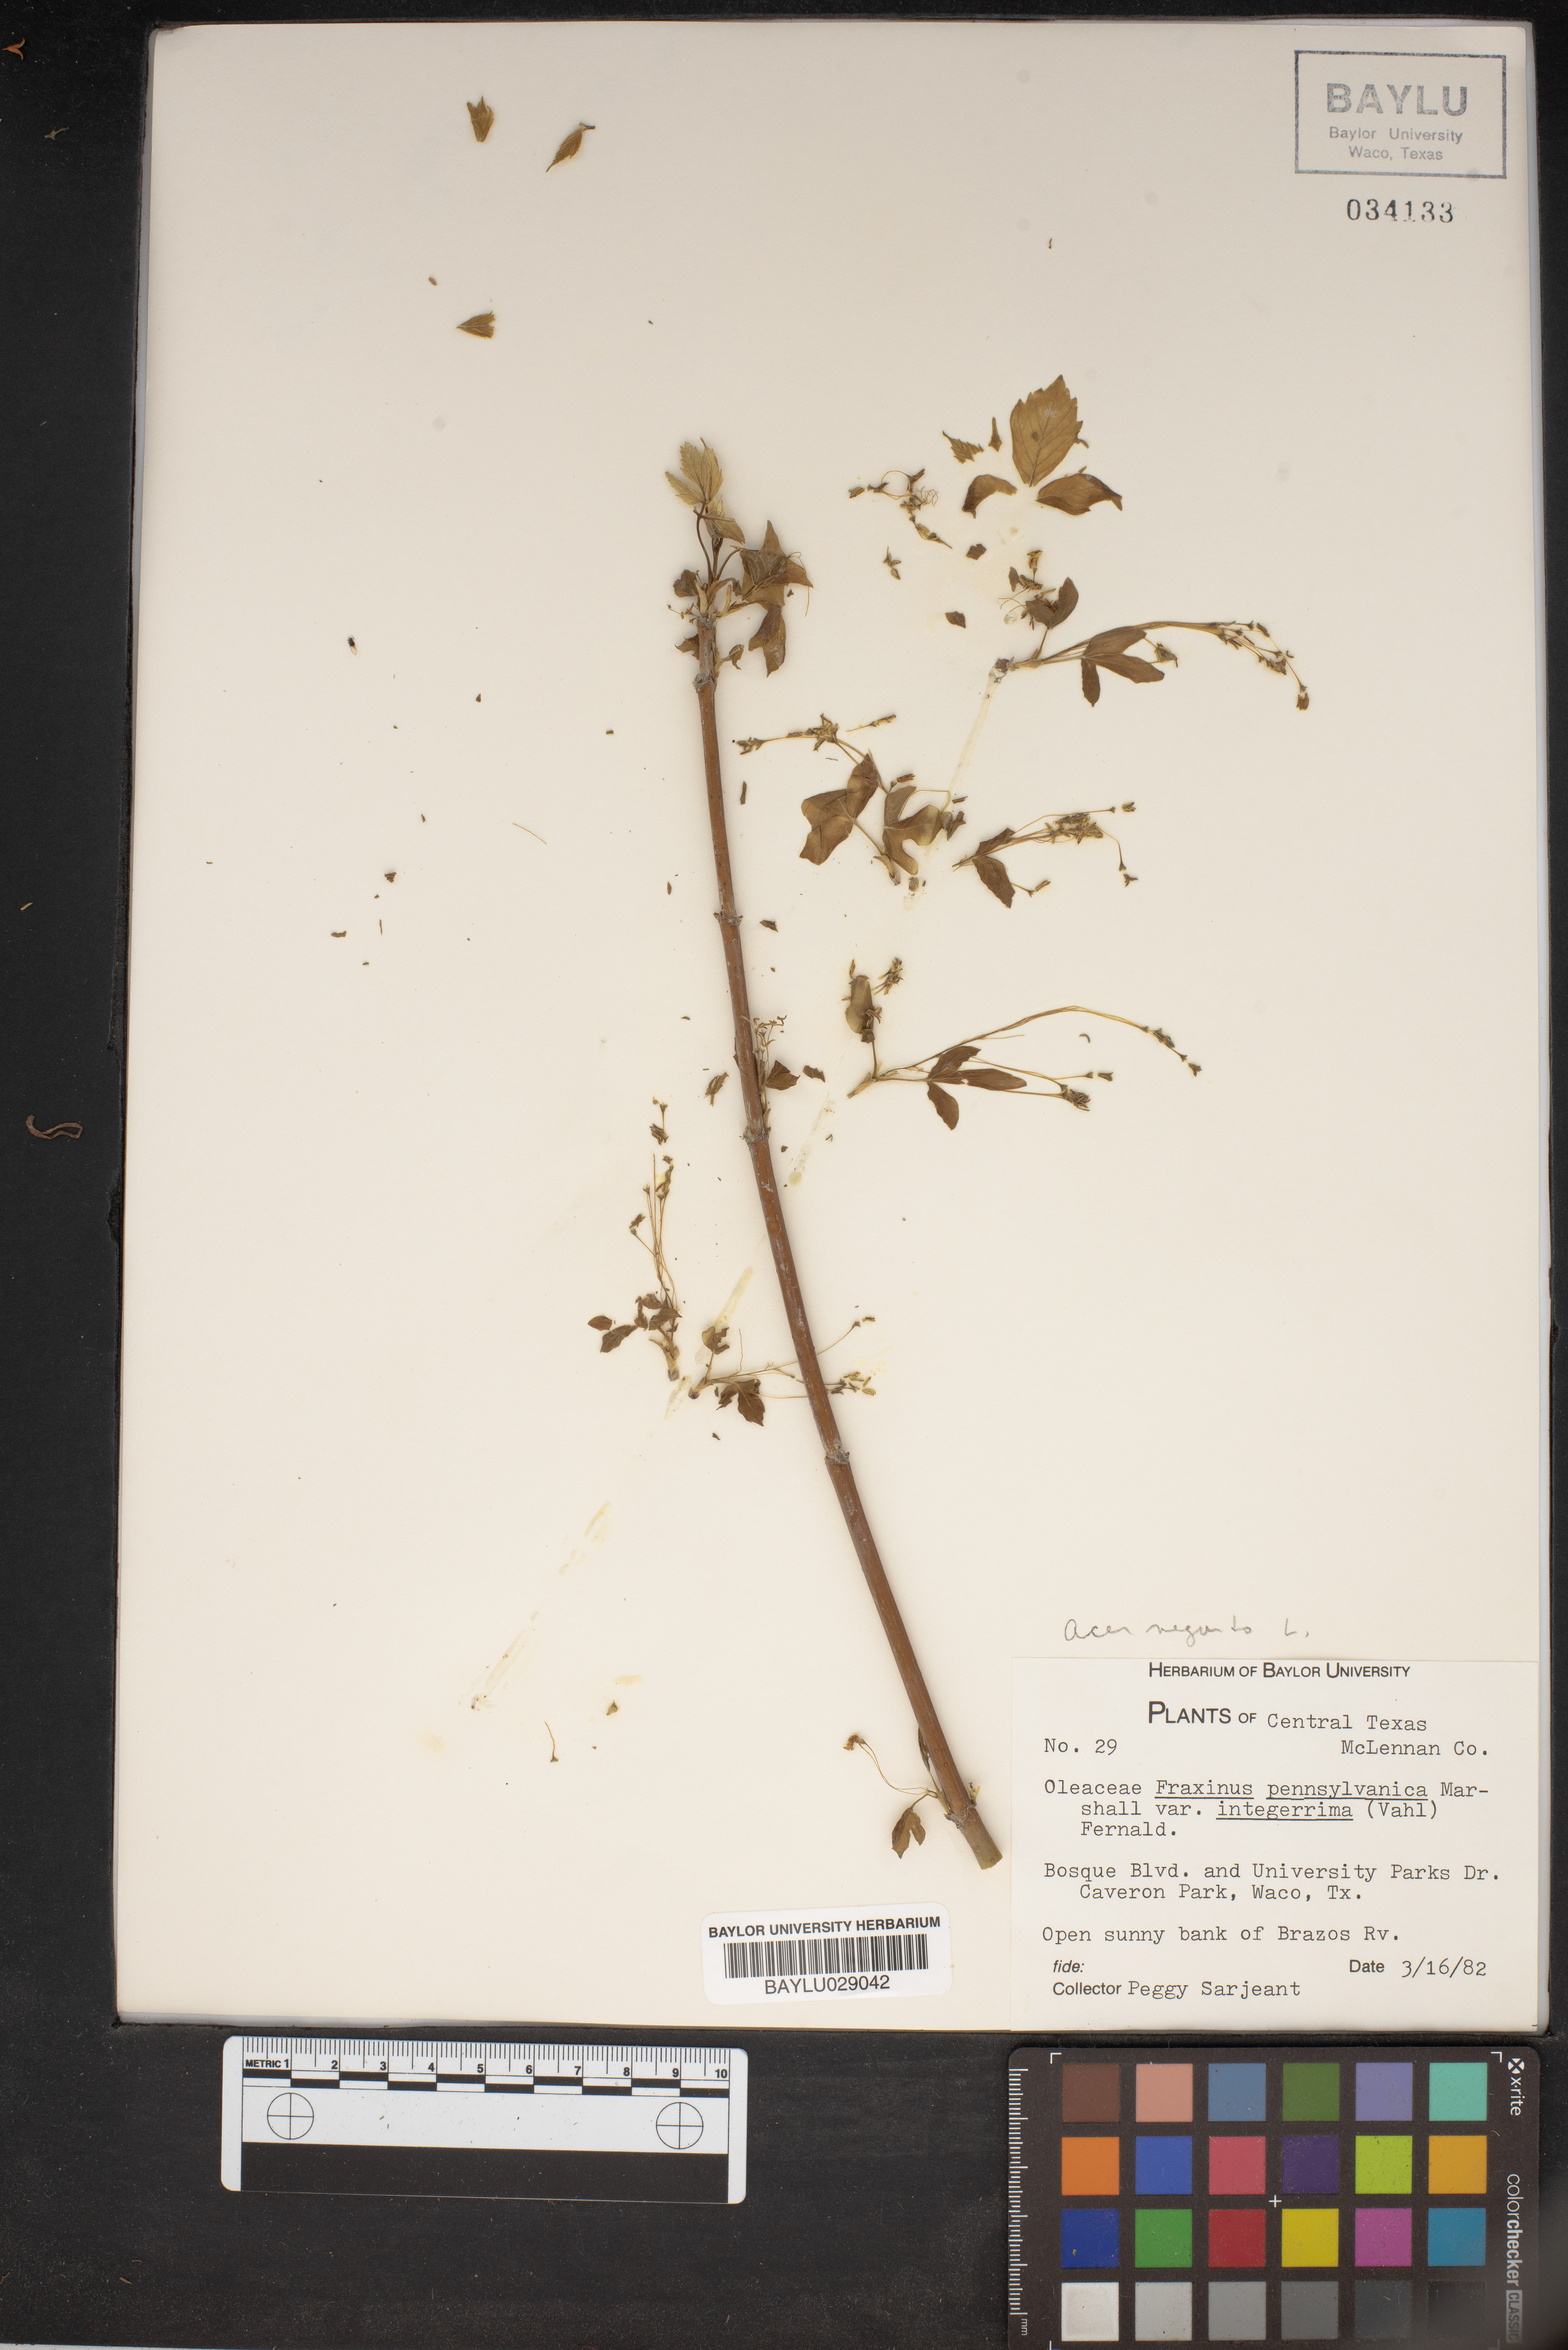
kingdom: Plantae
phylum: Tracheophyta
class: Magnoliopsida
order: Lamiales
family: Oleaceae
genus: Fraxinus
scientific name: Fraxinus pennsylvanica
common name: Green ash
